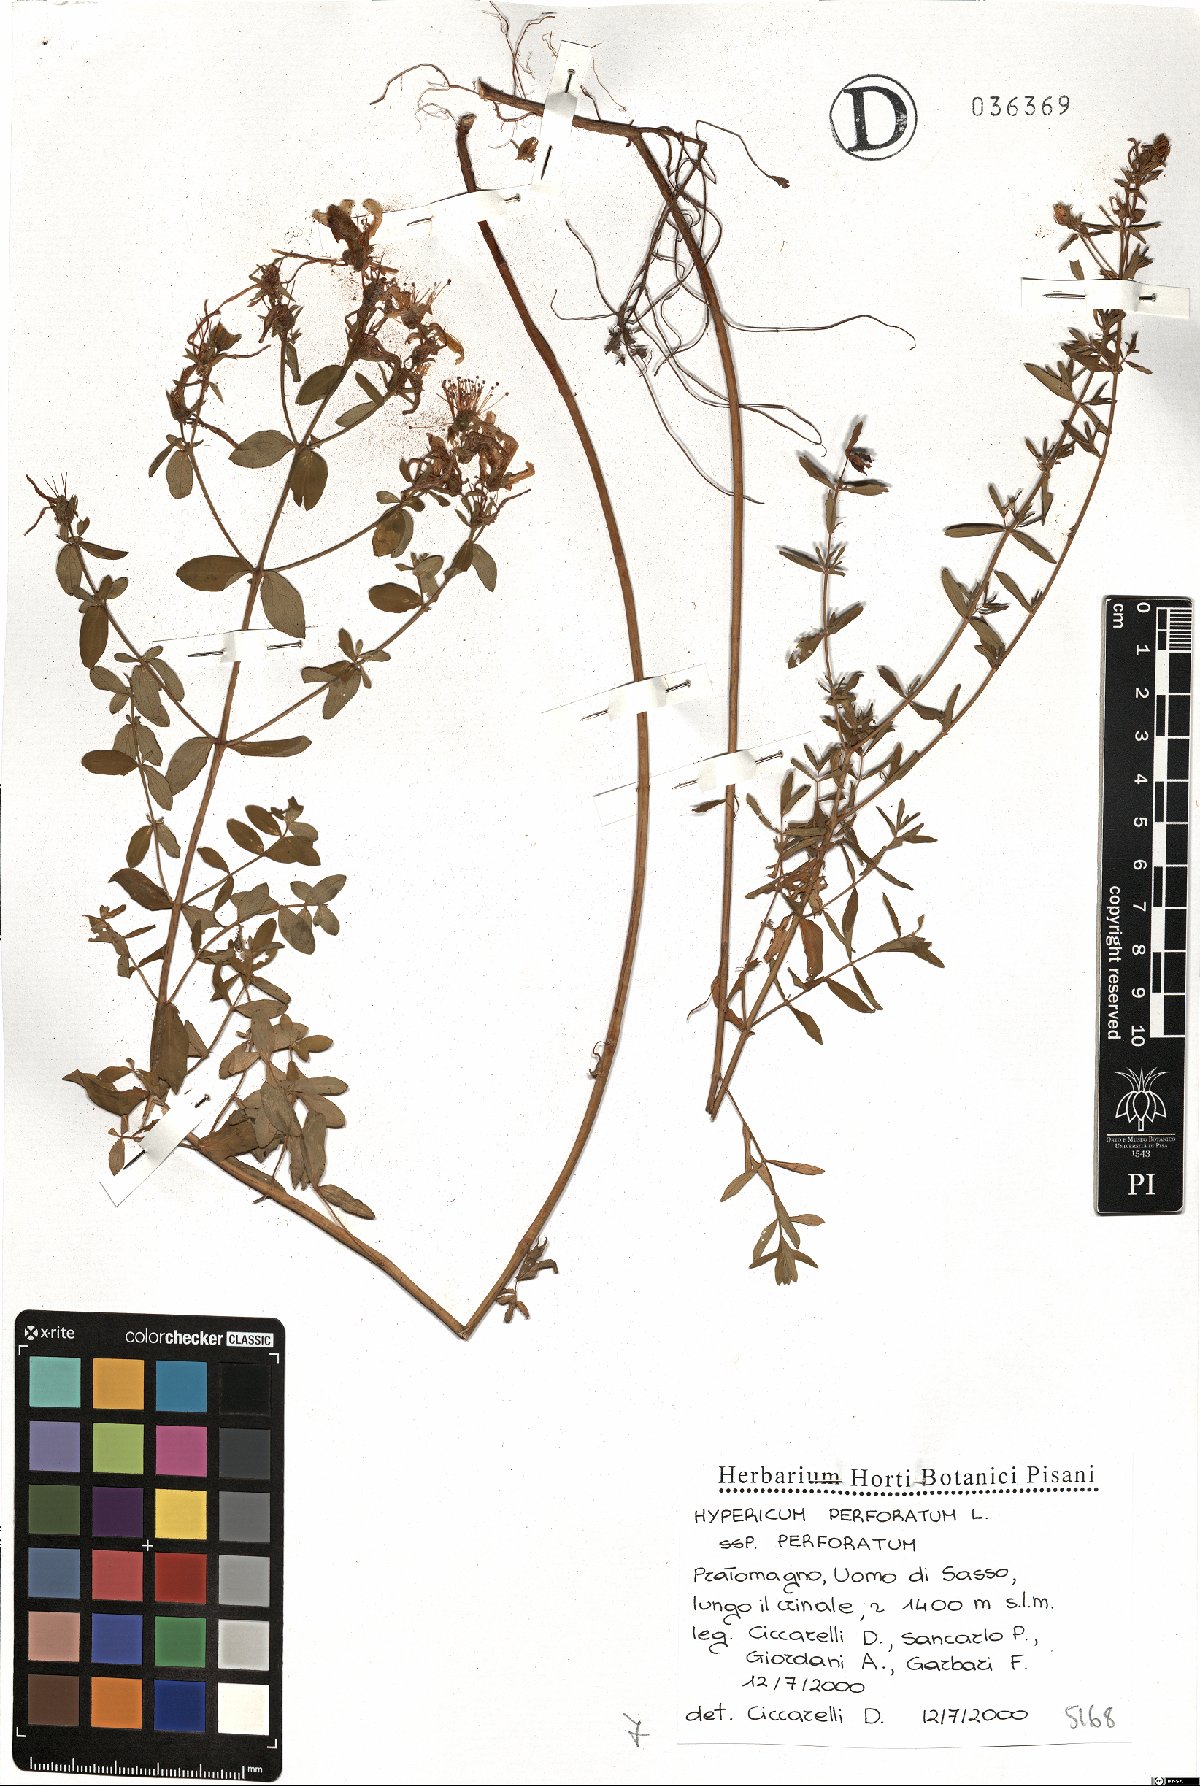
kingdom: Plantae
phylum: Tracheophyta
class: Magnoliopsida
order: Malpighiales
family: Hypericaceae
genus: Hypericum
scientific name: Hypericum perforatum
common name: Common st. johnswort
